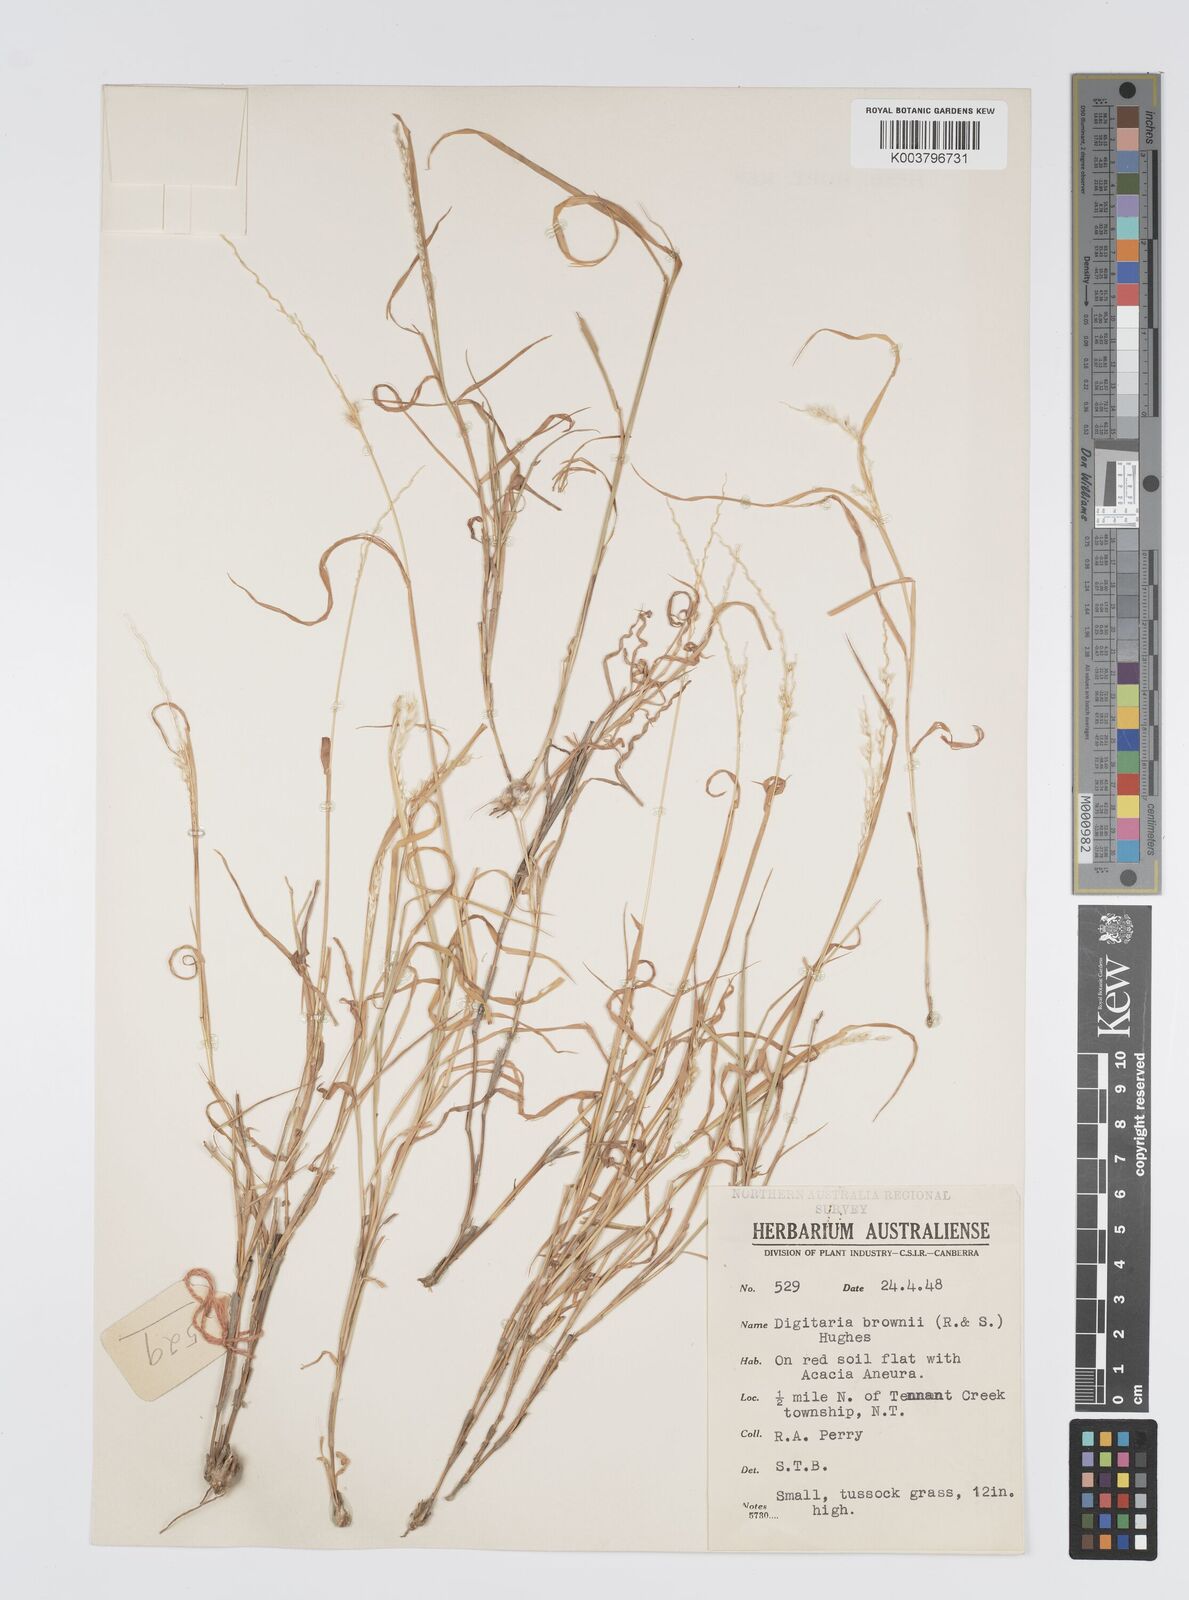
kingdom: Plantae
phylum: Tracheophyta
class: Liliopsida
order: Poales
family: Poaceae
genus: Digitaria
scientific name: Digitaria brownii
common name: Cotton grass
